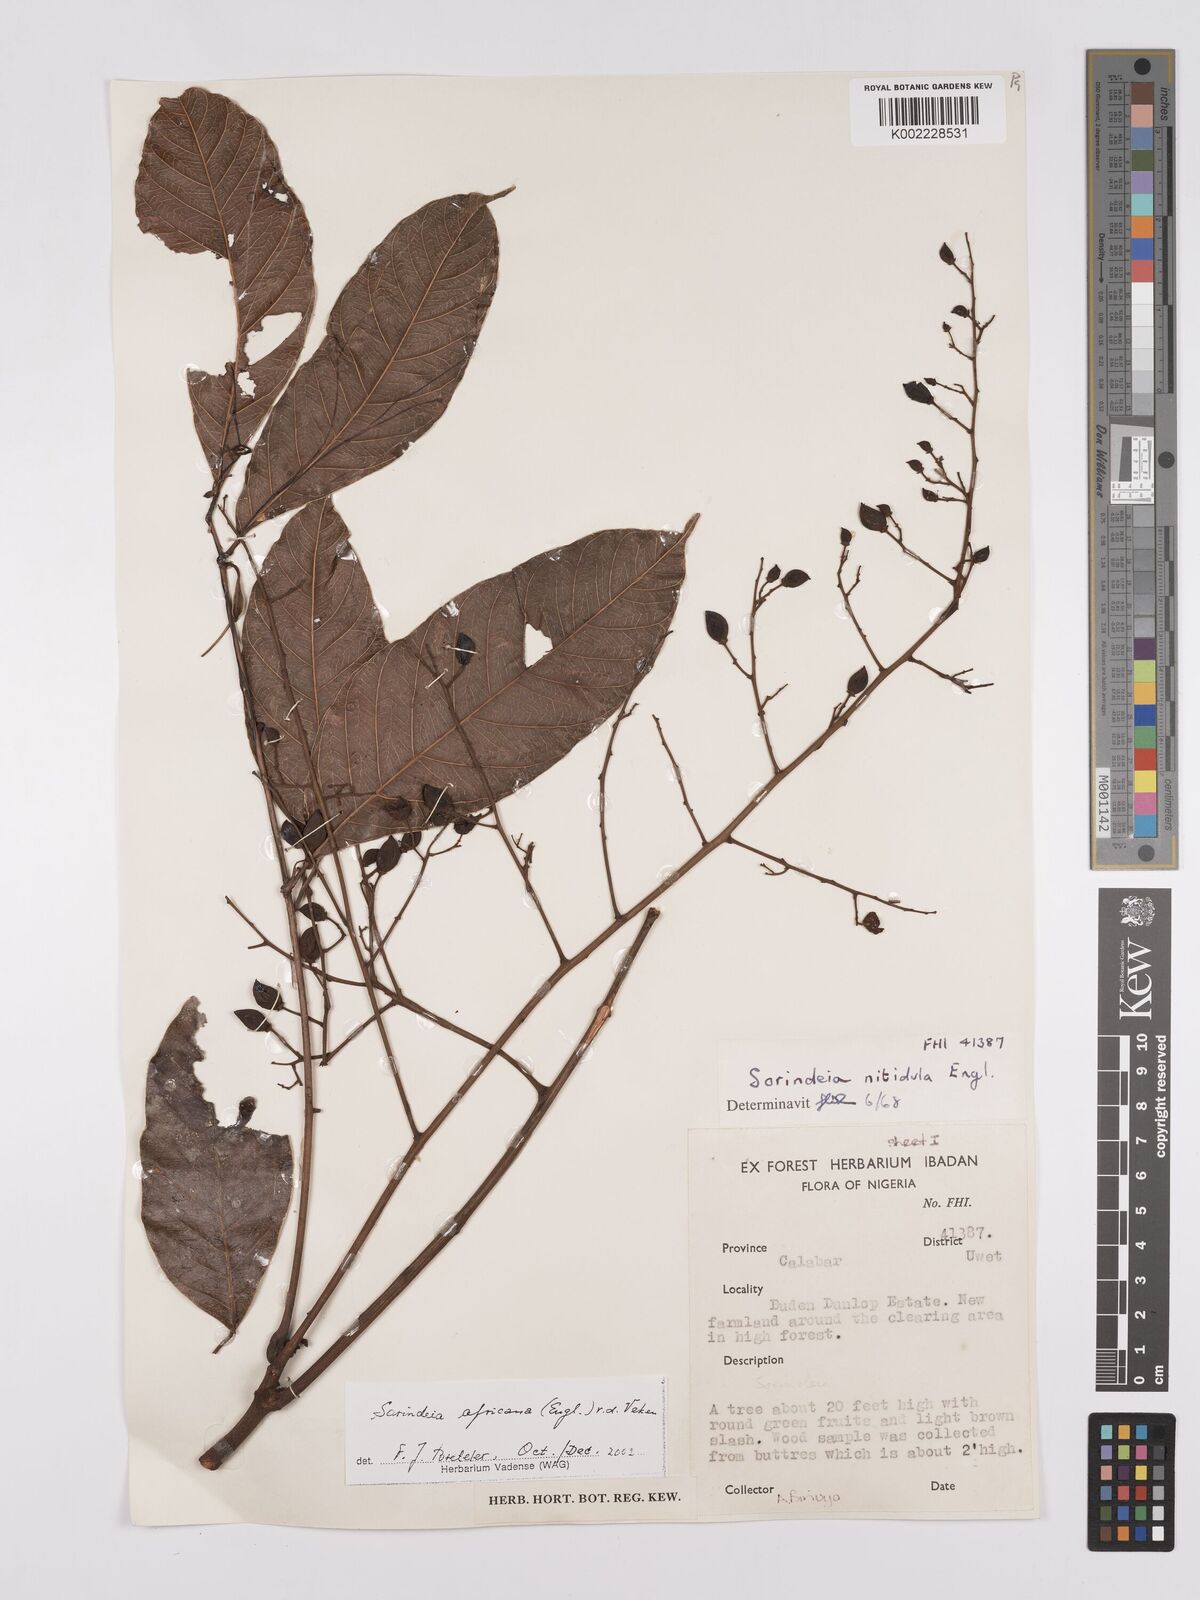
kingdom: Plantae
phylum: Tracheophyta
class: Magnoliopsida
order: Sapindales
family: Anacardiaceae
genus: Sorindeia
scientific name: Sorindeia africana
